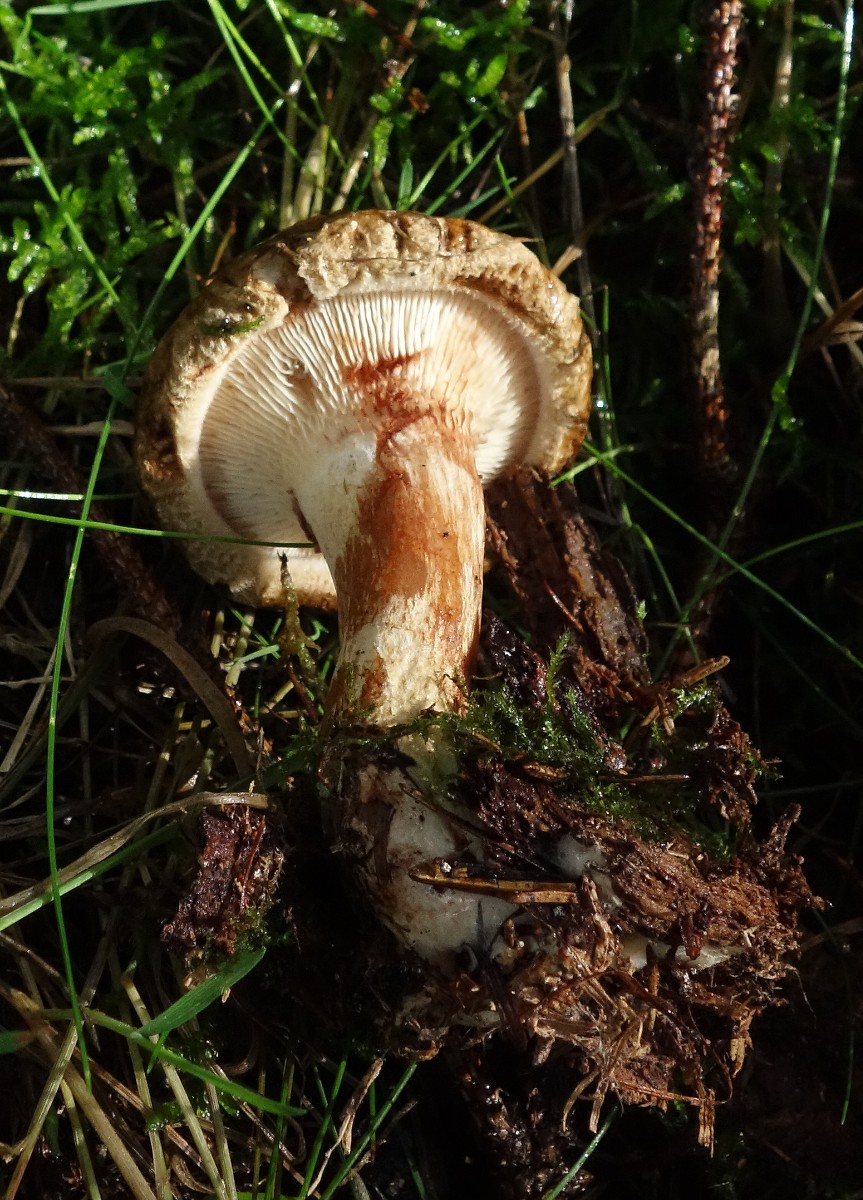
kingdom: Fungi
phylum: Basidiomycota
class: Agaricomycetes
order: Boletales
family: Paxillaceae
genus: Paxillus
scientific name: Paxillus involutus
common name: almindelig netbladhat
